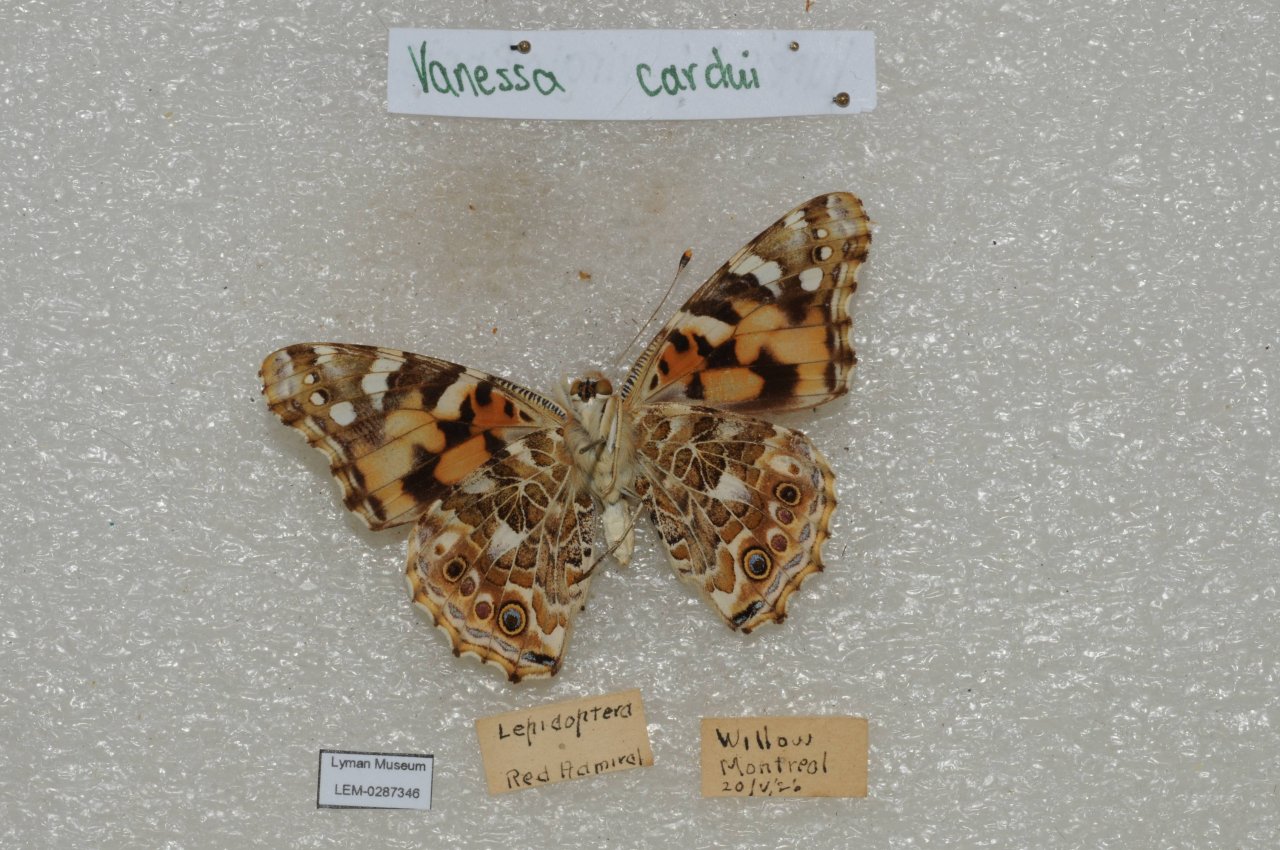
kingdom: Animalia
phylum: Arthropoda
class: Insecta
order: Lepidoptera
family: Nymphalidae
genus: Vanessa
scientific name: Vanessa cardui
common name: Painted Lady
